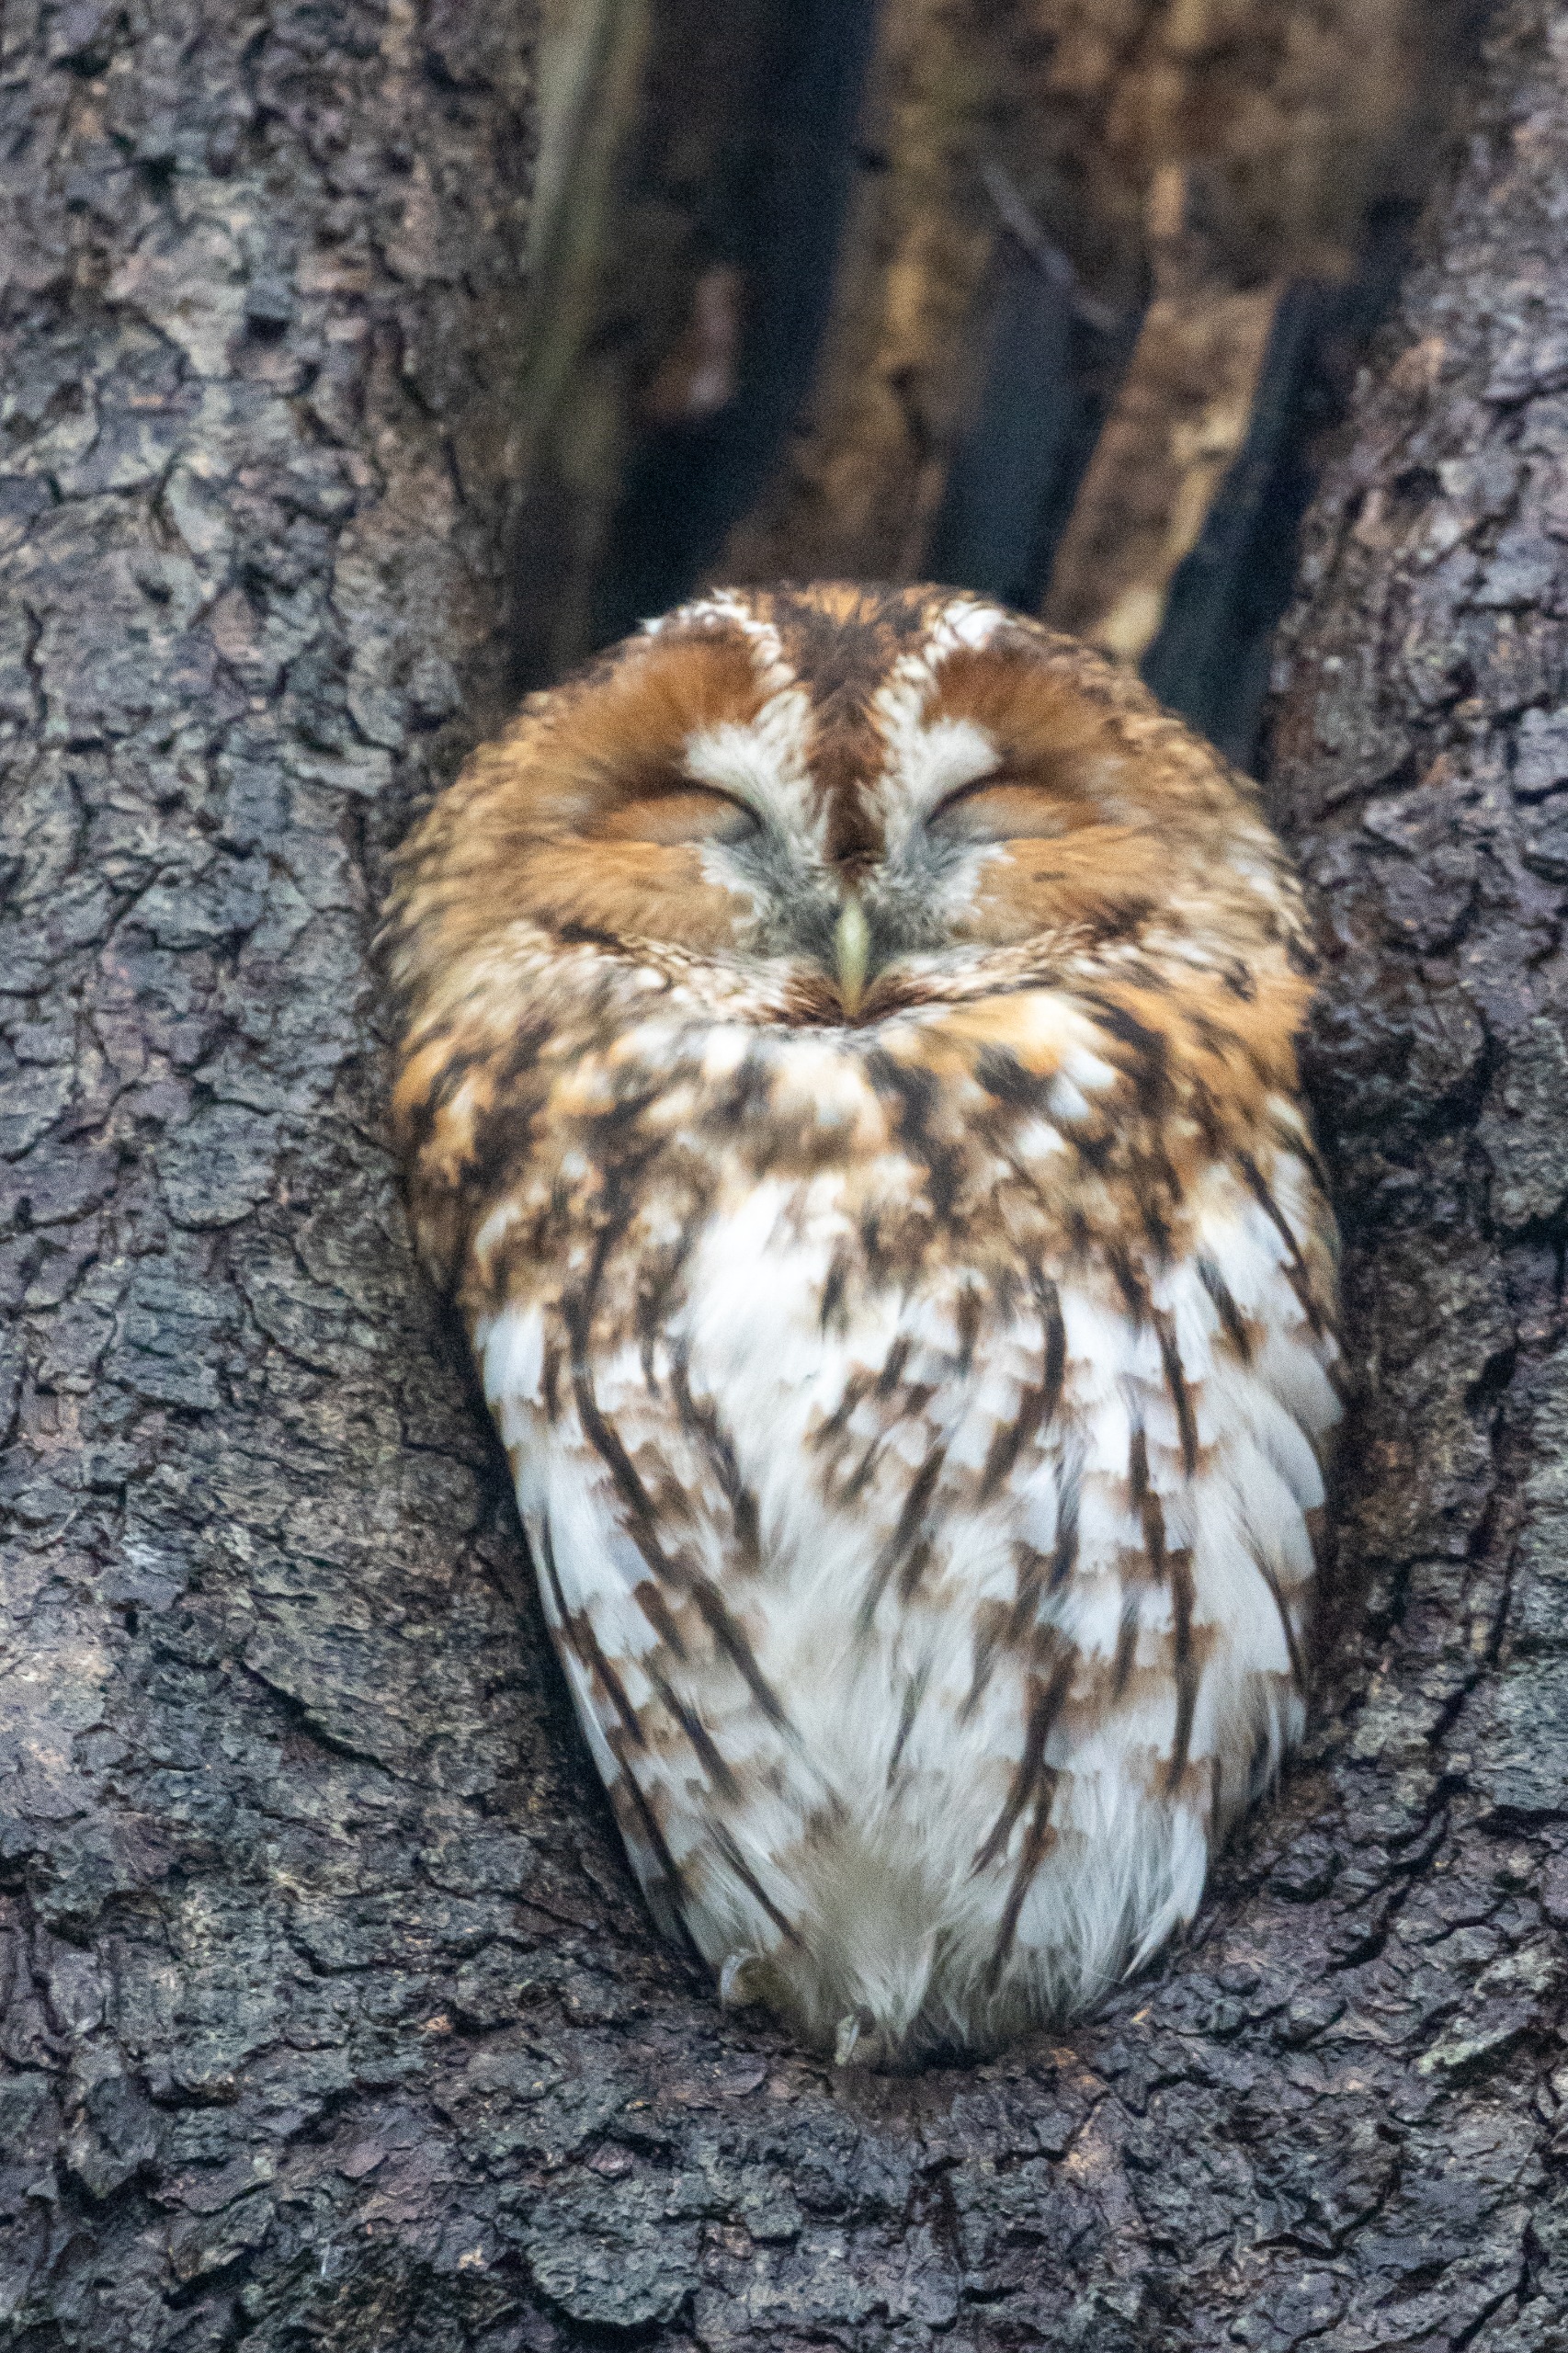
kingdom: Animalia
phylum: Chordata
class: Aves
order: Strigiformes
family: Strigidae
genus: Strix
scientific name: Strix aluco
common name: Natugle
